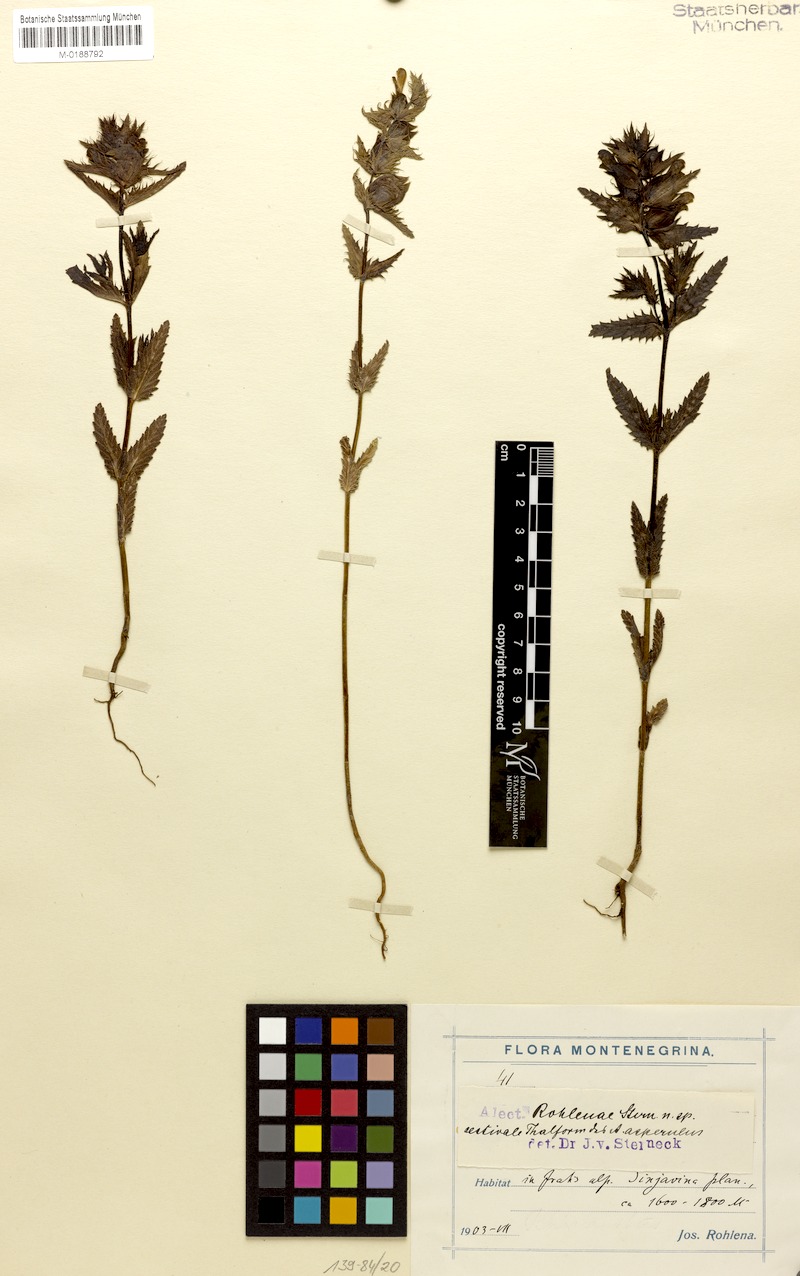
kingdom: Plantae
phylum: Tracheophyta
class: Magnoliopsida
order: Lamiales
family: Orobanchaceae
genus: Rhinanthus
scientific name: Rhinanthus asperulus
